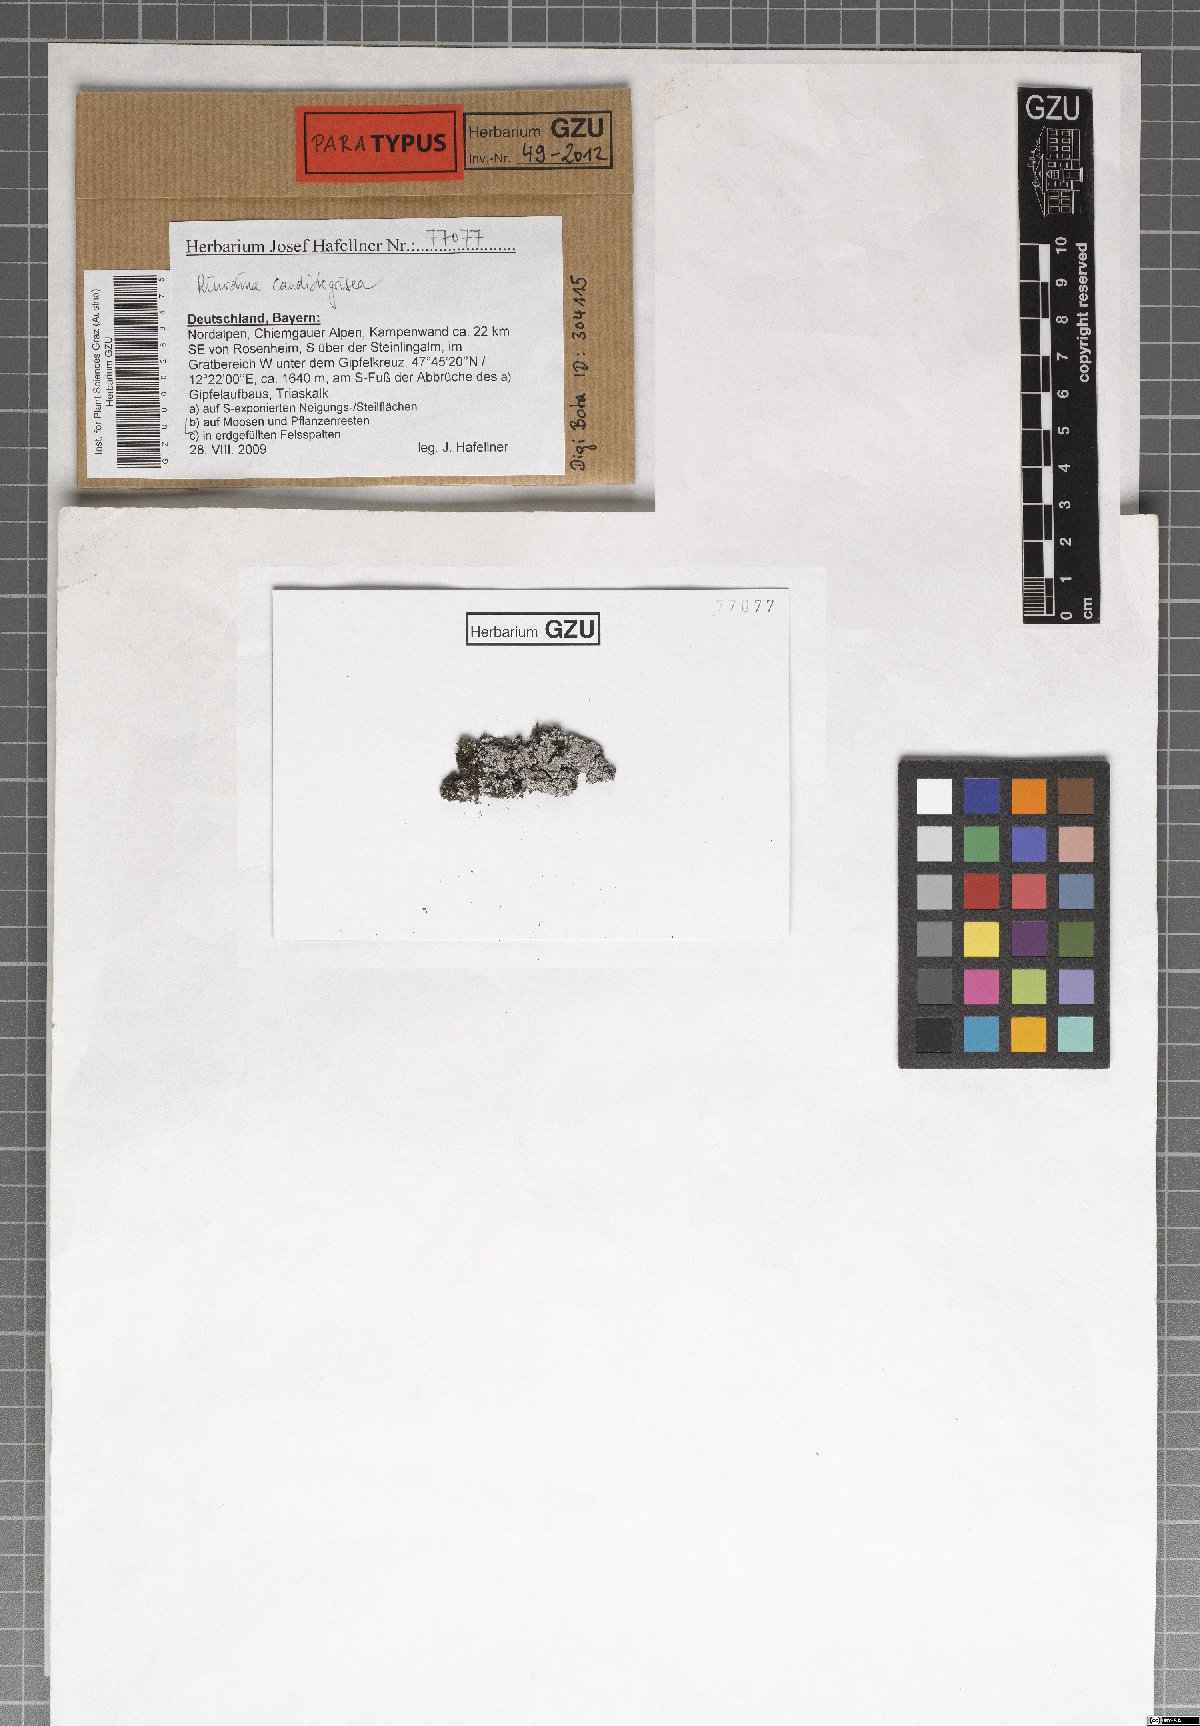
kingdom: Fungi
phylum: Ascomycota
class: Lecanoromycetes
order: Caliciales
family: Physciaceae
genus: Kudratovia
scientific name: Kudratovia candidogrisea
